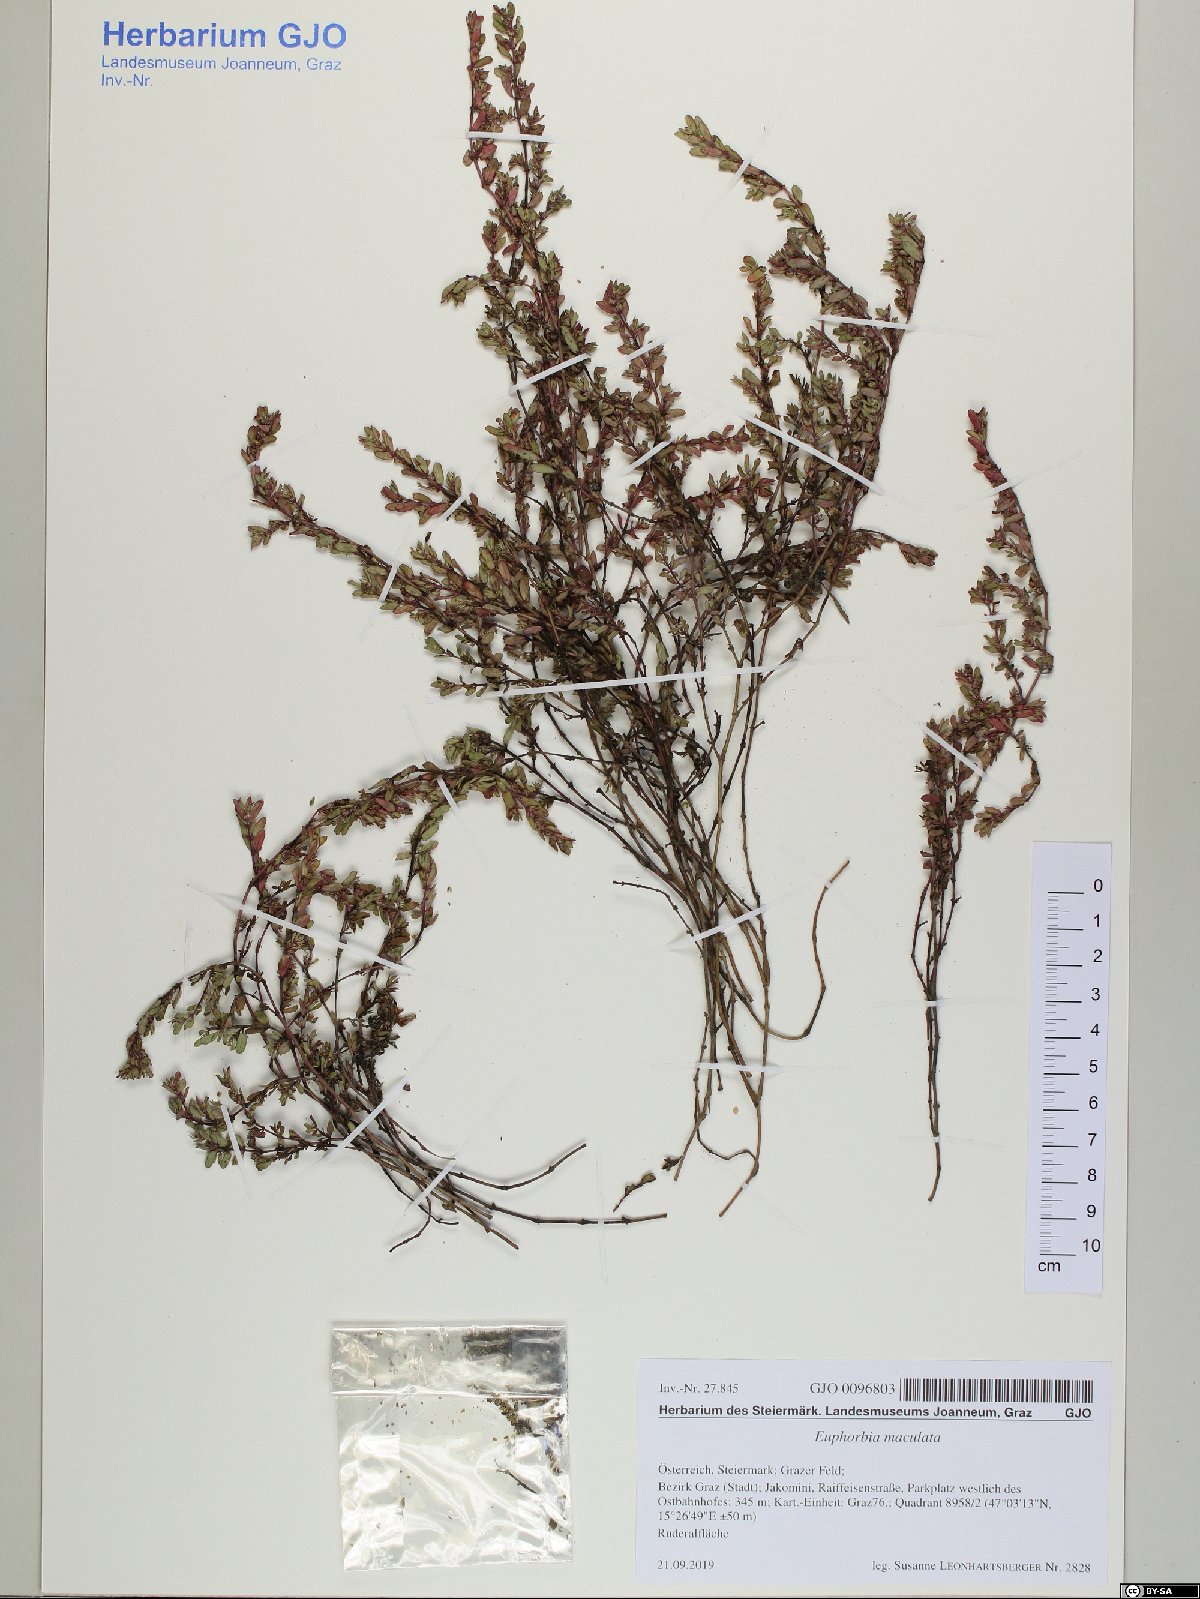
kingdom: Plantae
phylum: Tracheophyta
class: Magnoliopsida
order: Malpighiales
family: Euphorbiaceae
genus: Euphorbia
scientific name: Euphorbia maculata
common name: Spotted spurge
